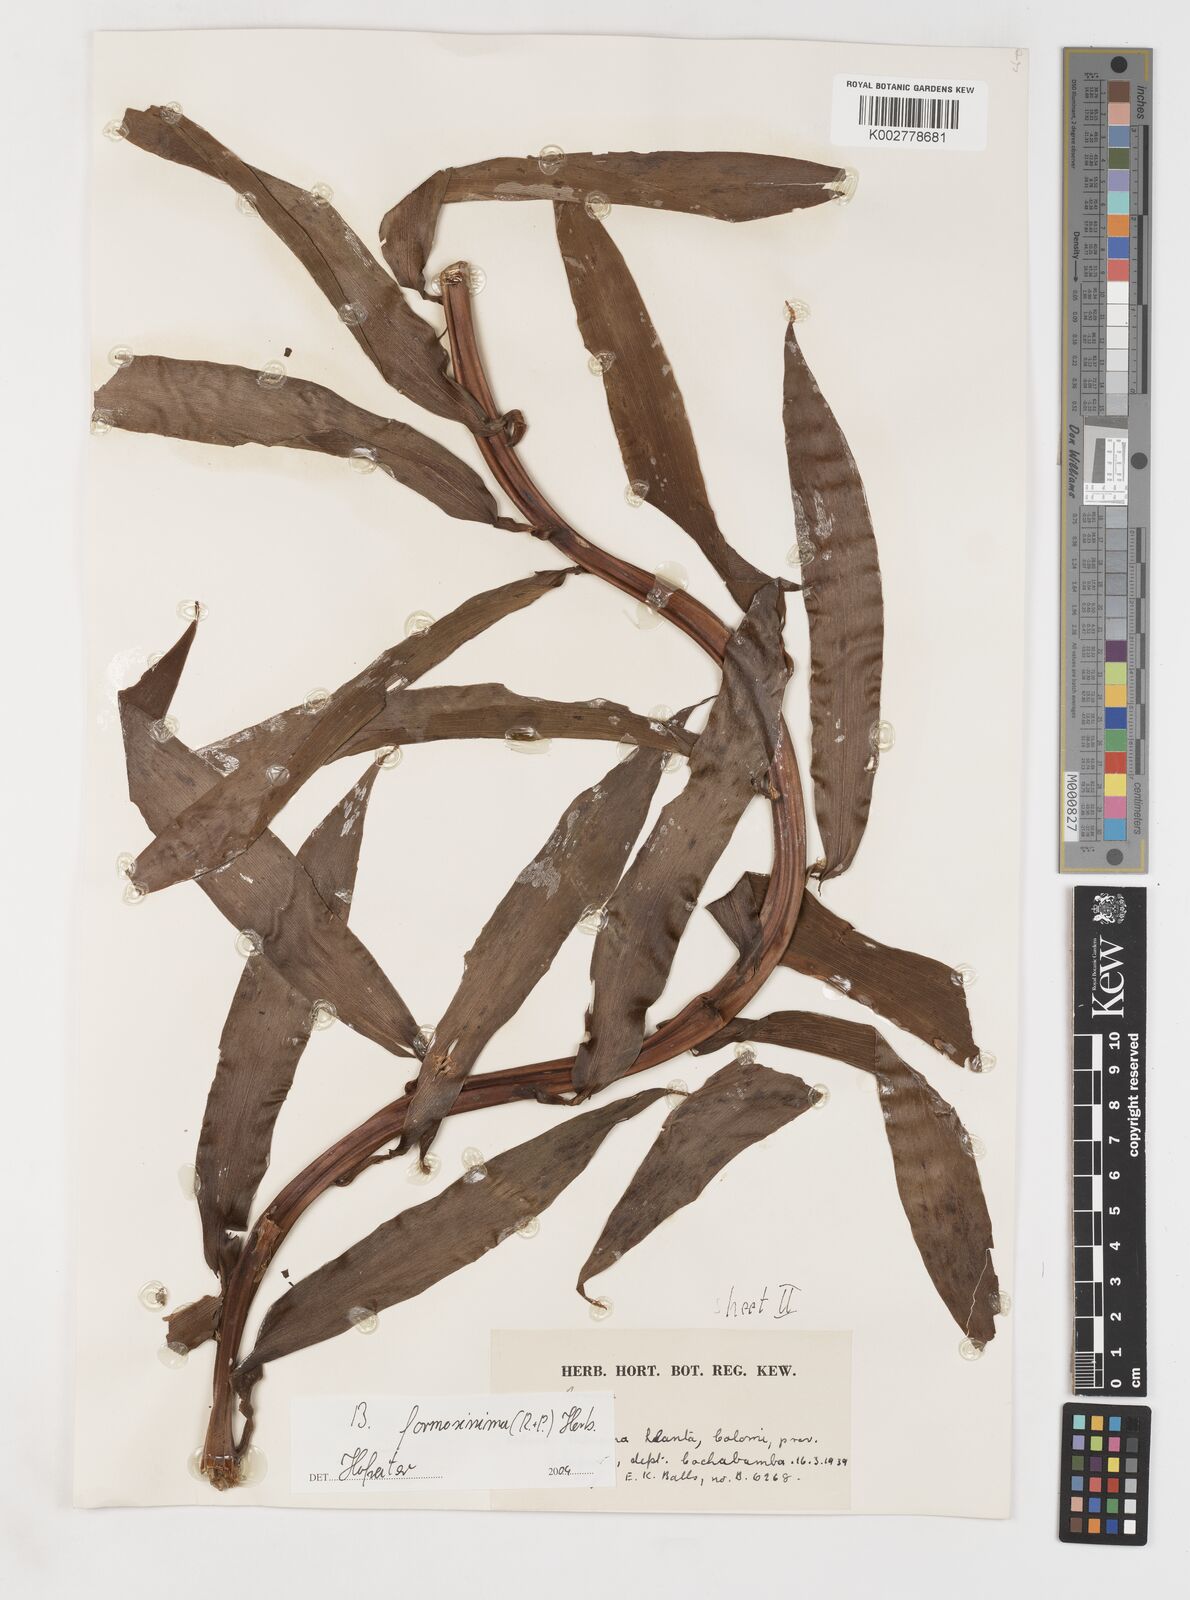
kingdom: Plantae
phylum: Tracheophyta
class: Liliopsida
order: Liliales
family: Alstroemeriaceae
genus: Bomarea
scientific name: Bomarea formosissima
